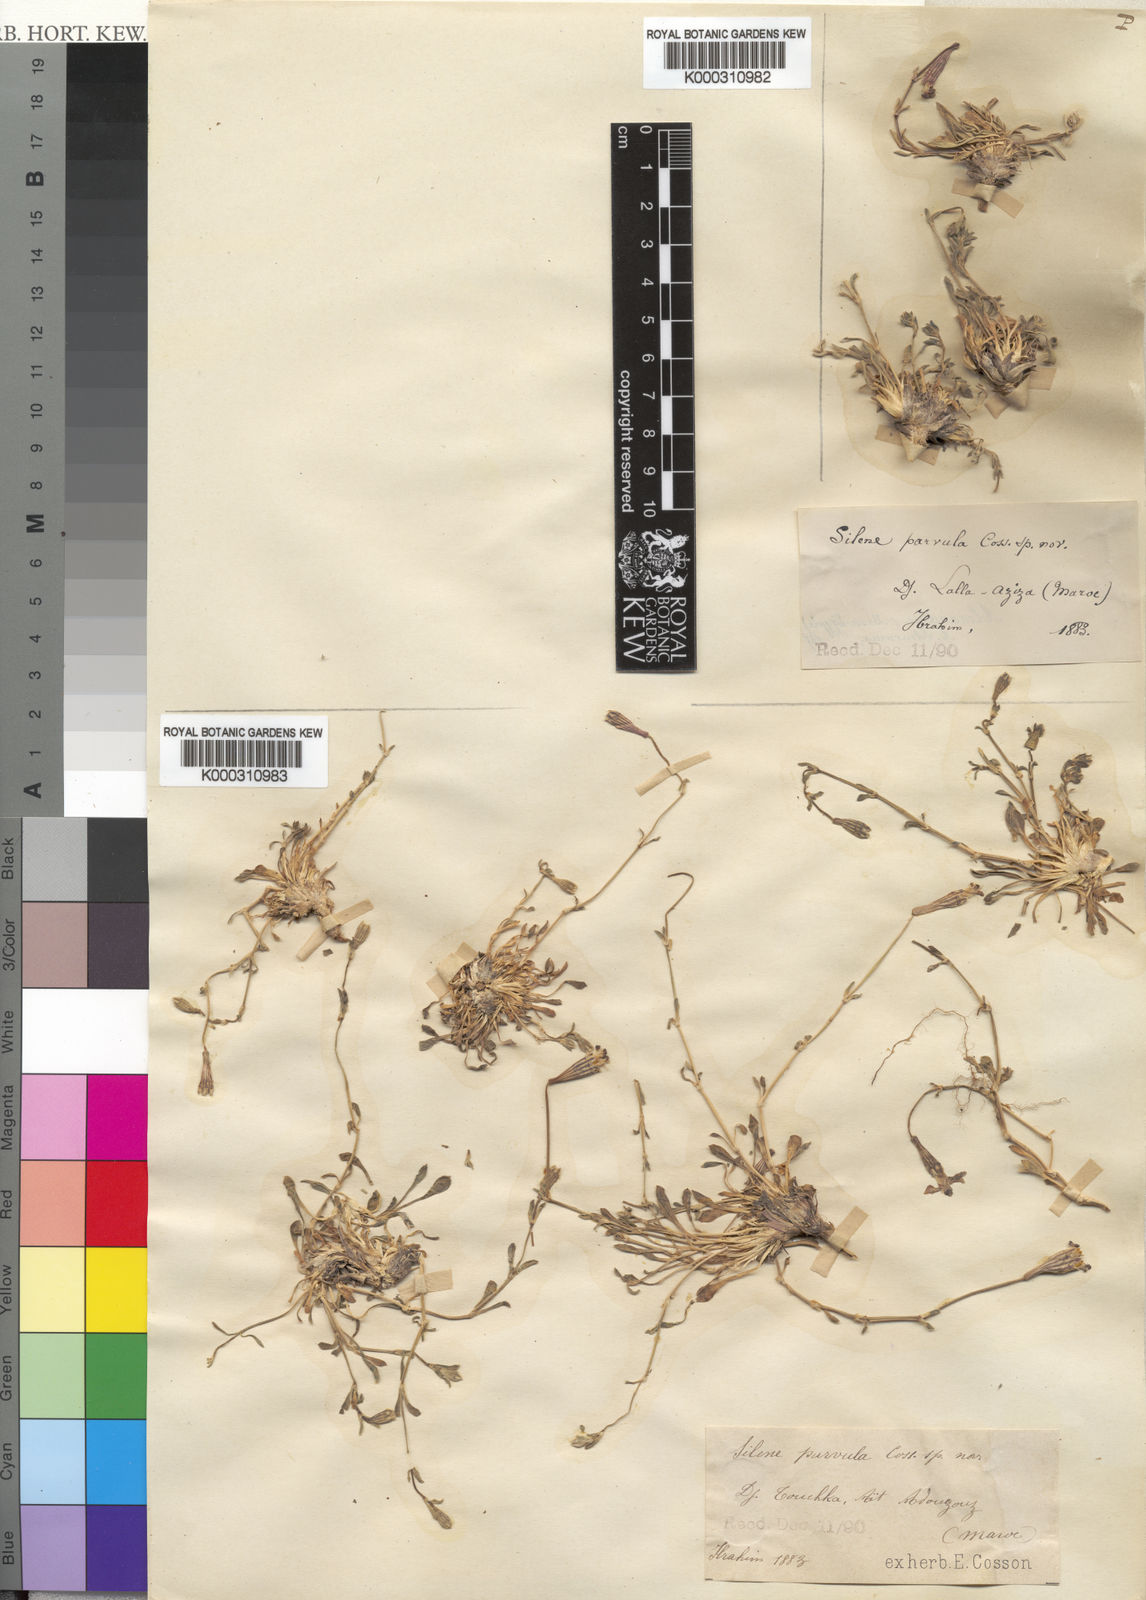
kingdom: Plantae
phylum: Tracheophyta
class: Magnoliopsida
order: Caryophyllales
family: Caryophyllaceae
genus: Silene
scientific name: Silene heterodonta
